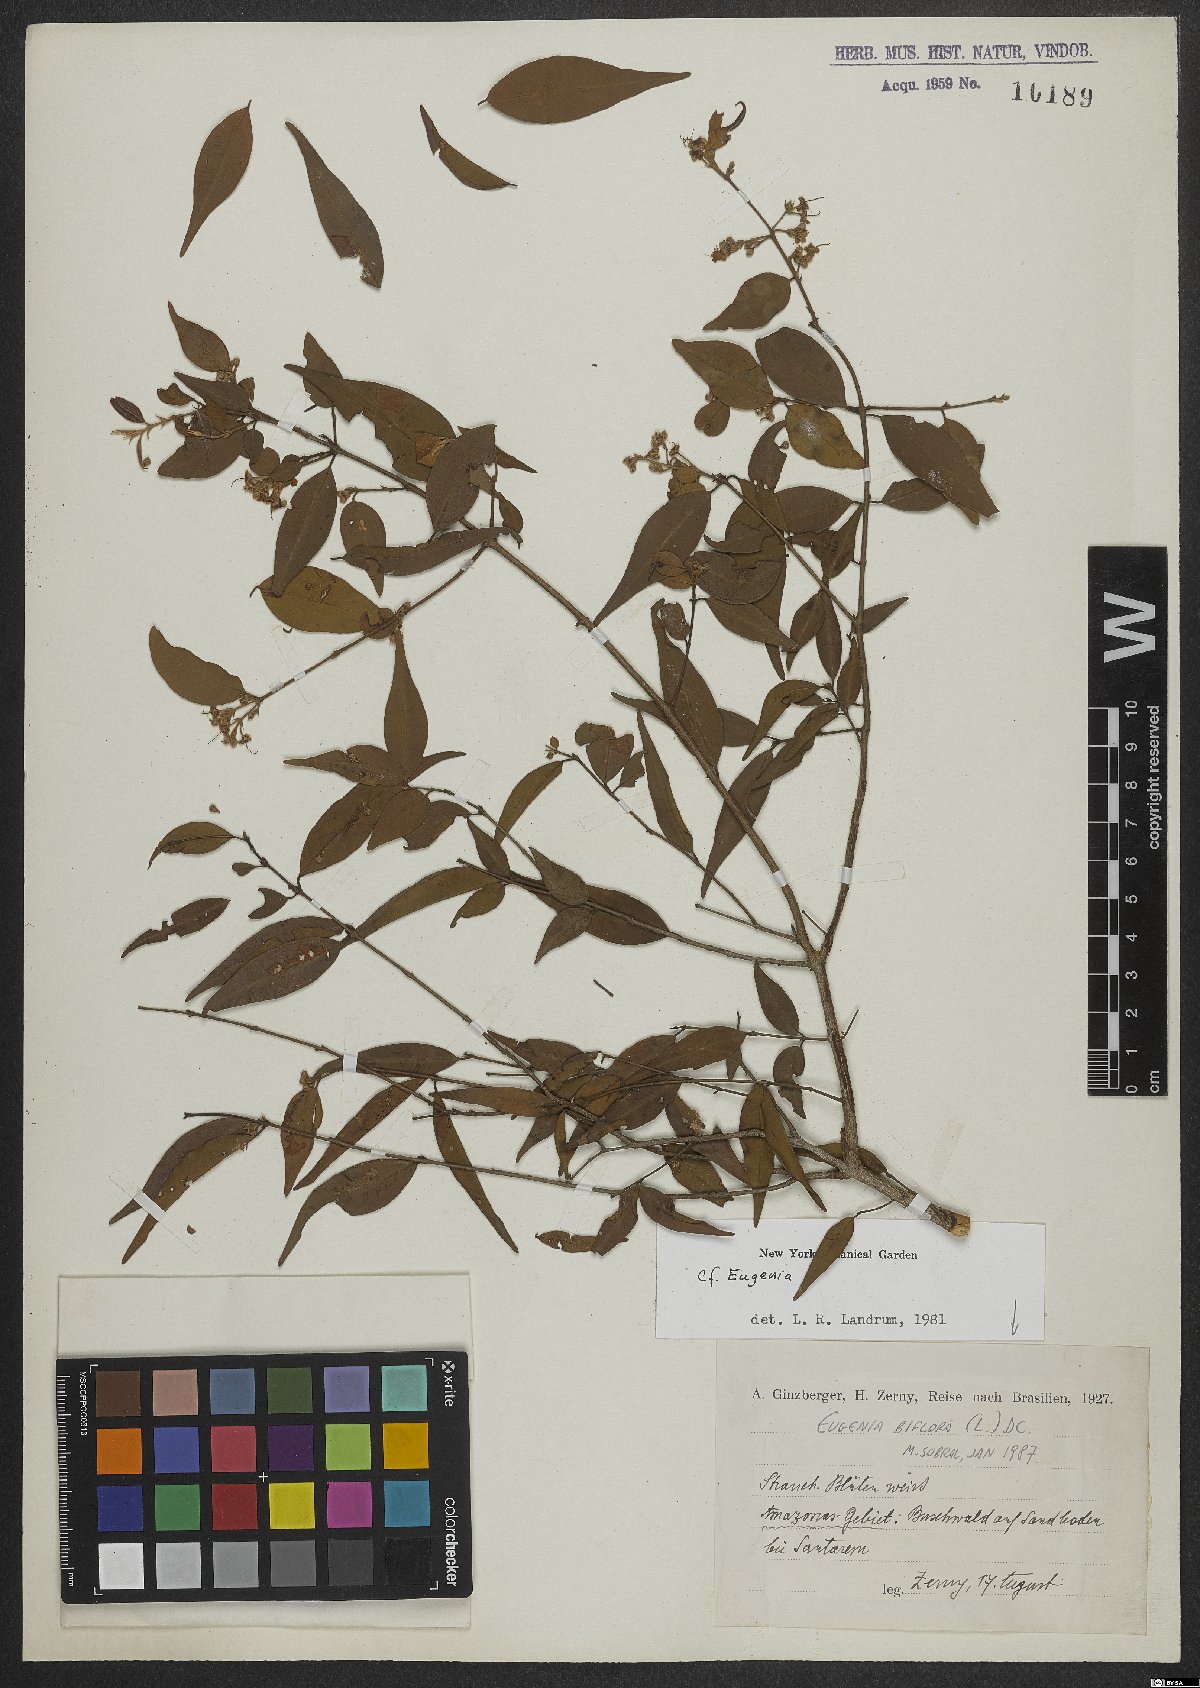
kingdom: Plantae
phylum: Tracheophyta
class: Magnoliopsida
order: Myrtales
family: Myrtaceae
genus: Eugenia
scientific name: Eugenia warmingiana
